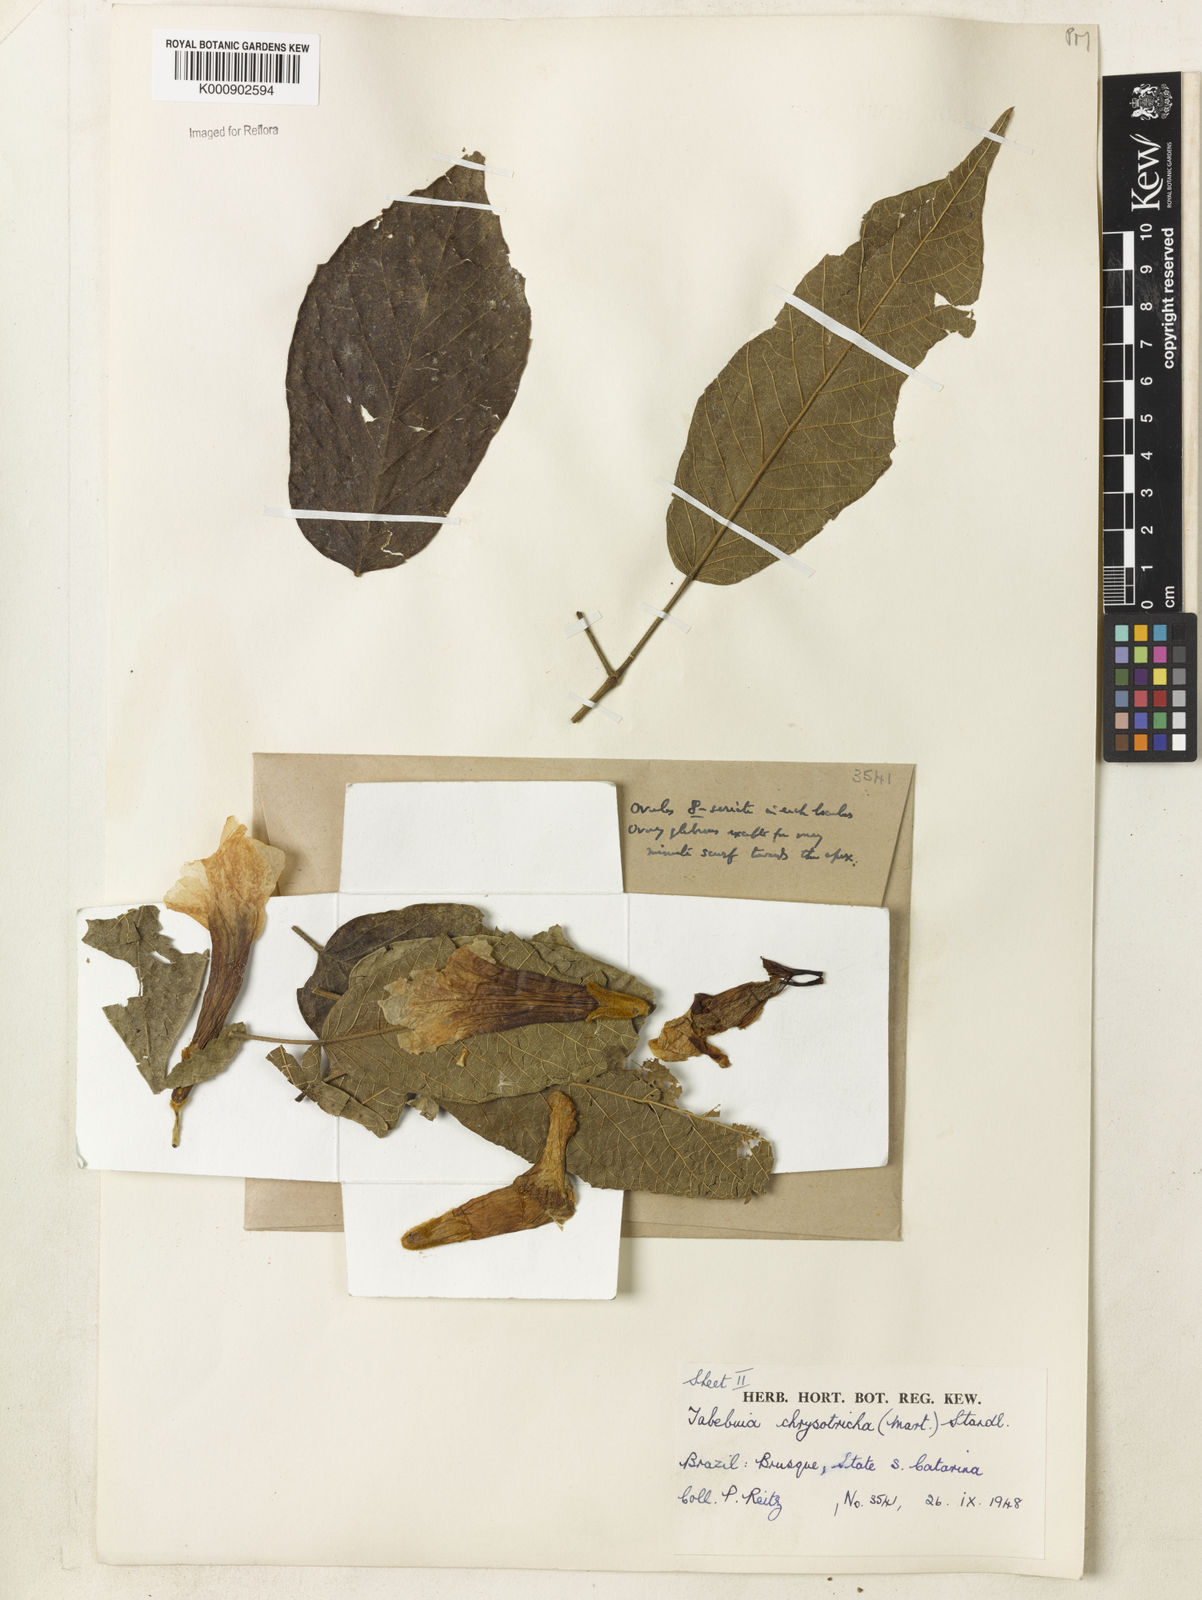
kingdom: Plantae
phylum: Tracheophyta
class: Magnoliopsida
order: Lamiales
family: Bignoniaceae
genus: Handroanthus
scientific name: Handroanthus chrysotrichus
